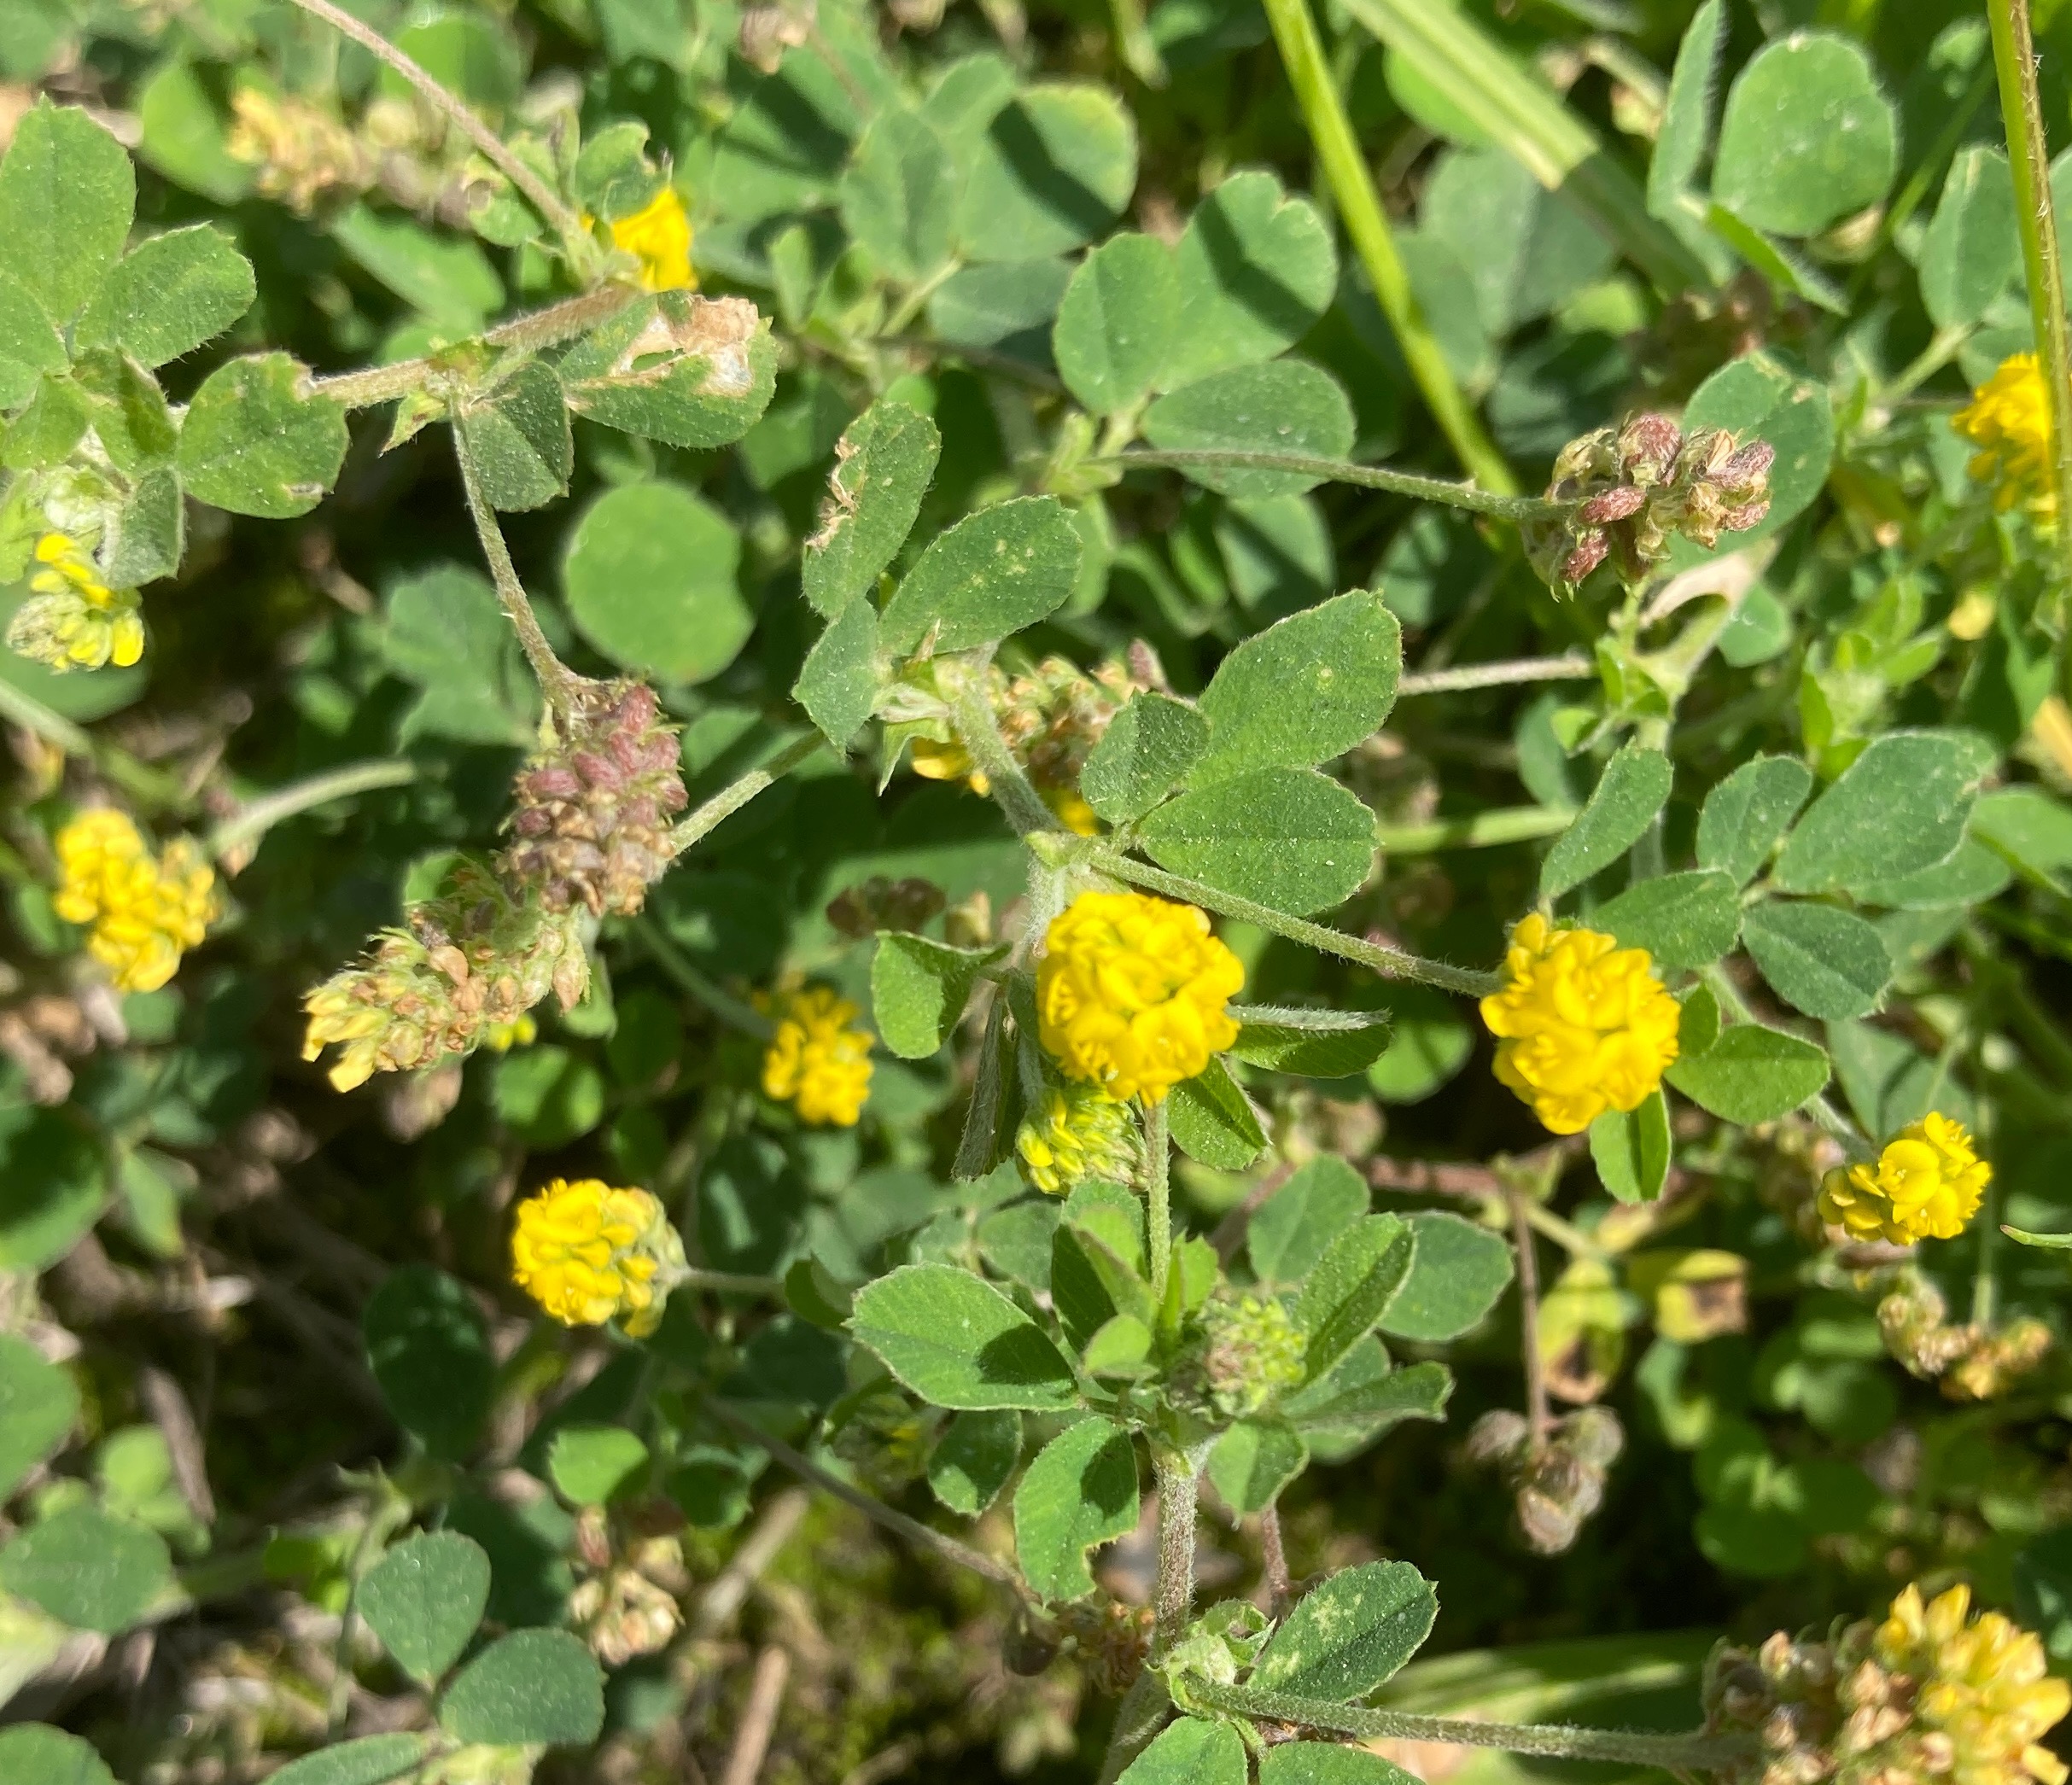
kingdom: Plantae
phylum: Tracheophyta
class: Magnoliopsida
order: Fabales
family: Fabaceae
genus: Medicago
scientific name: Medicago lupulina
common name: Humle-sneglebælg
